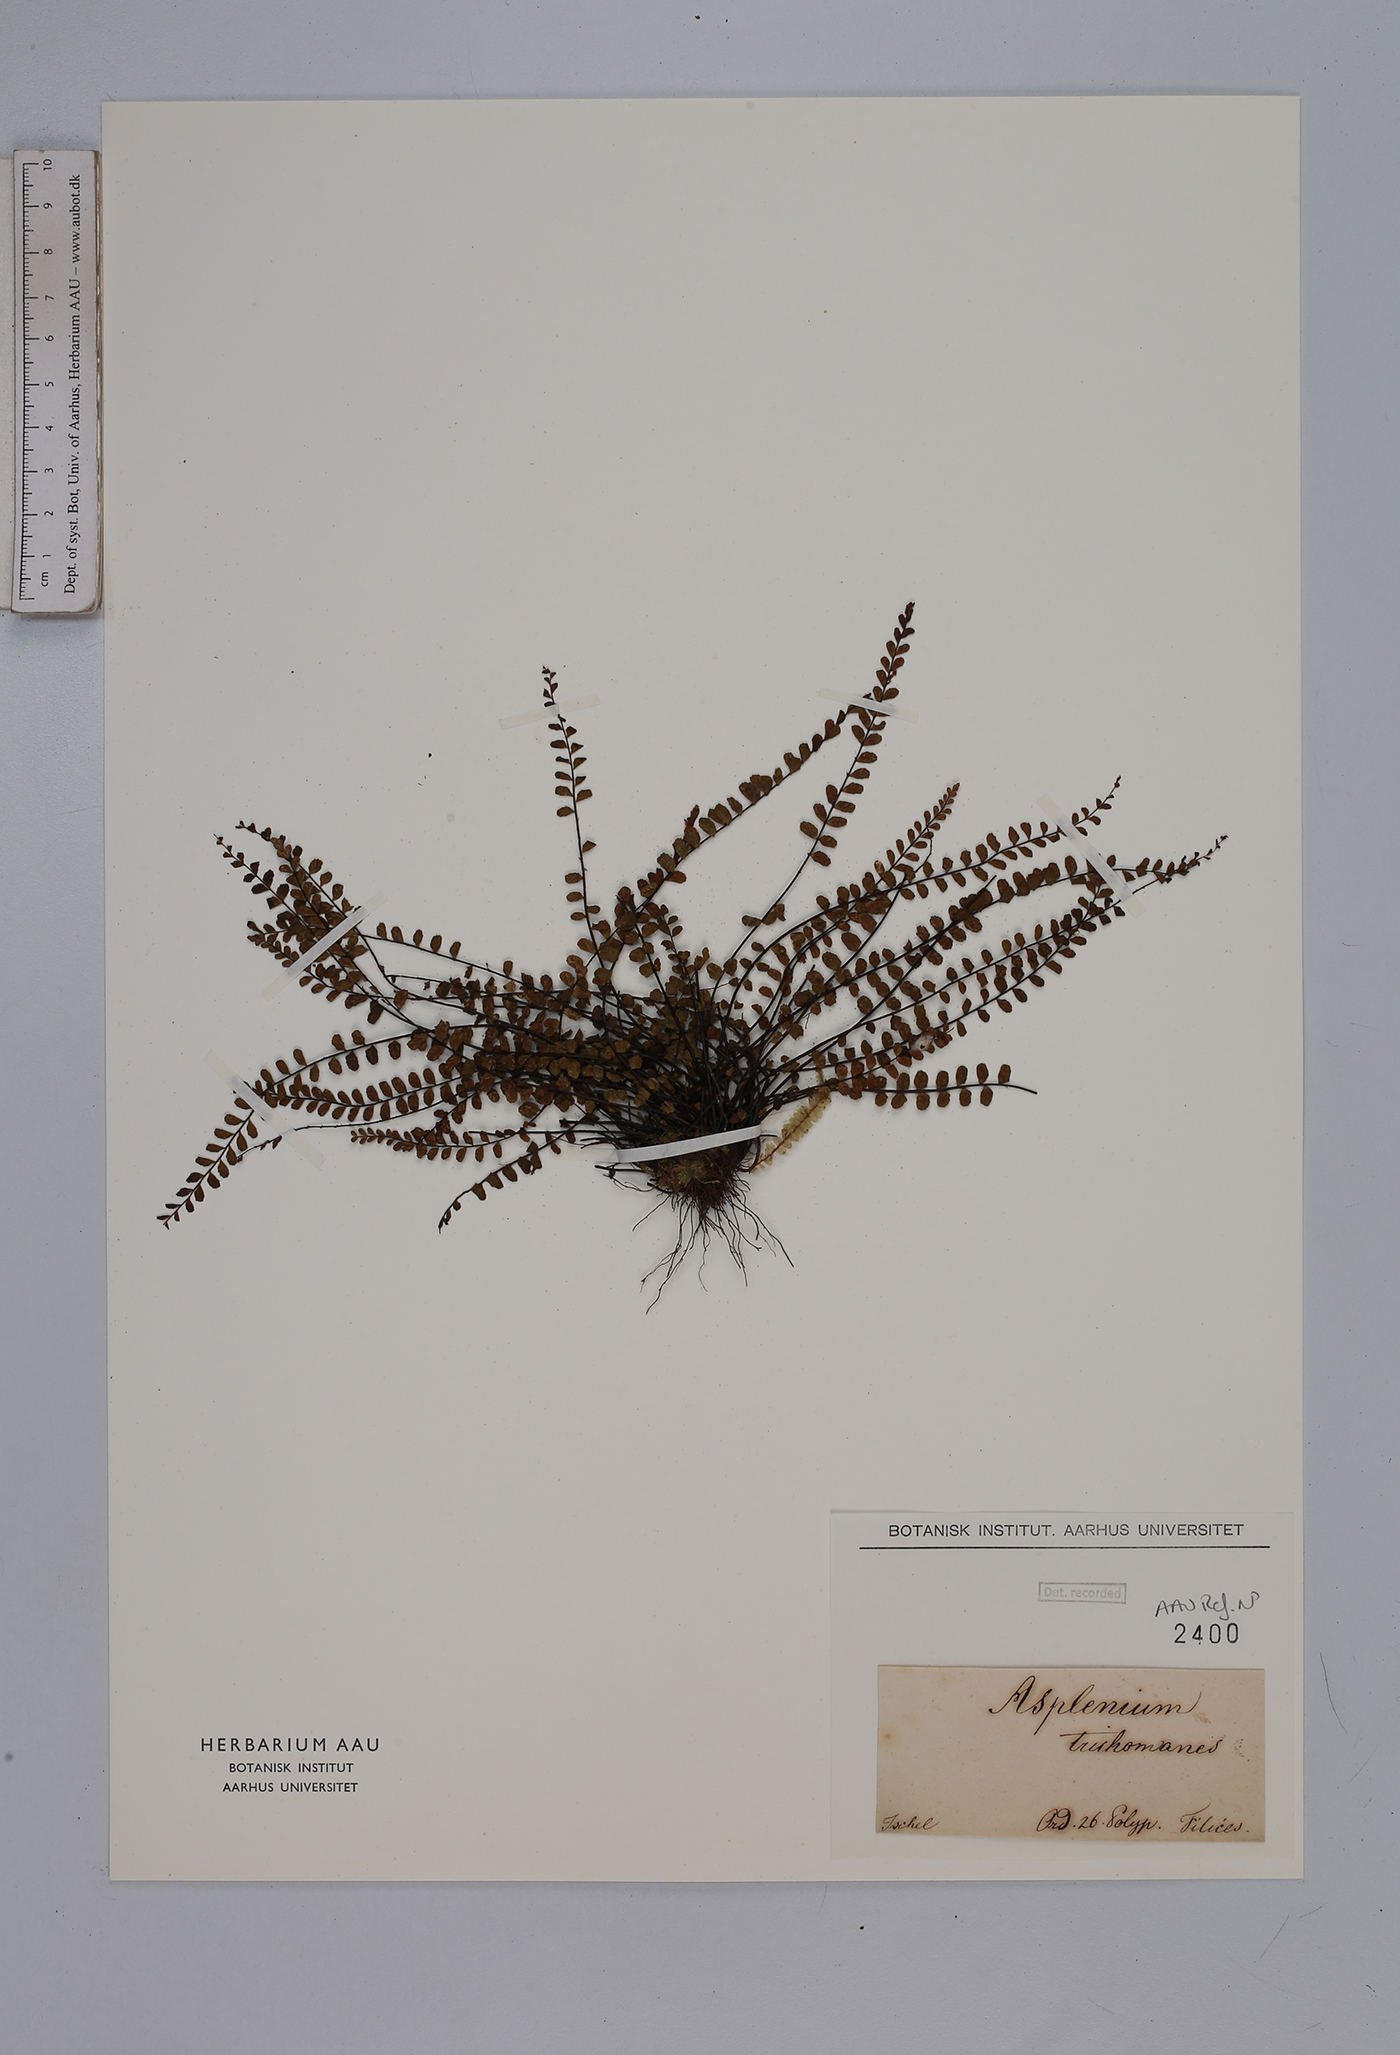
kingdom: Plantae
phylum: Tracheophyta
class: Polypodiopsida
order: Polypodiales
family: Aspleniaceae
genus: Asplenium
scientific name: Asplenium trichomanes
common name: Maidenhair spleenwort
